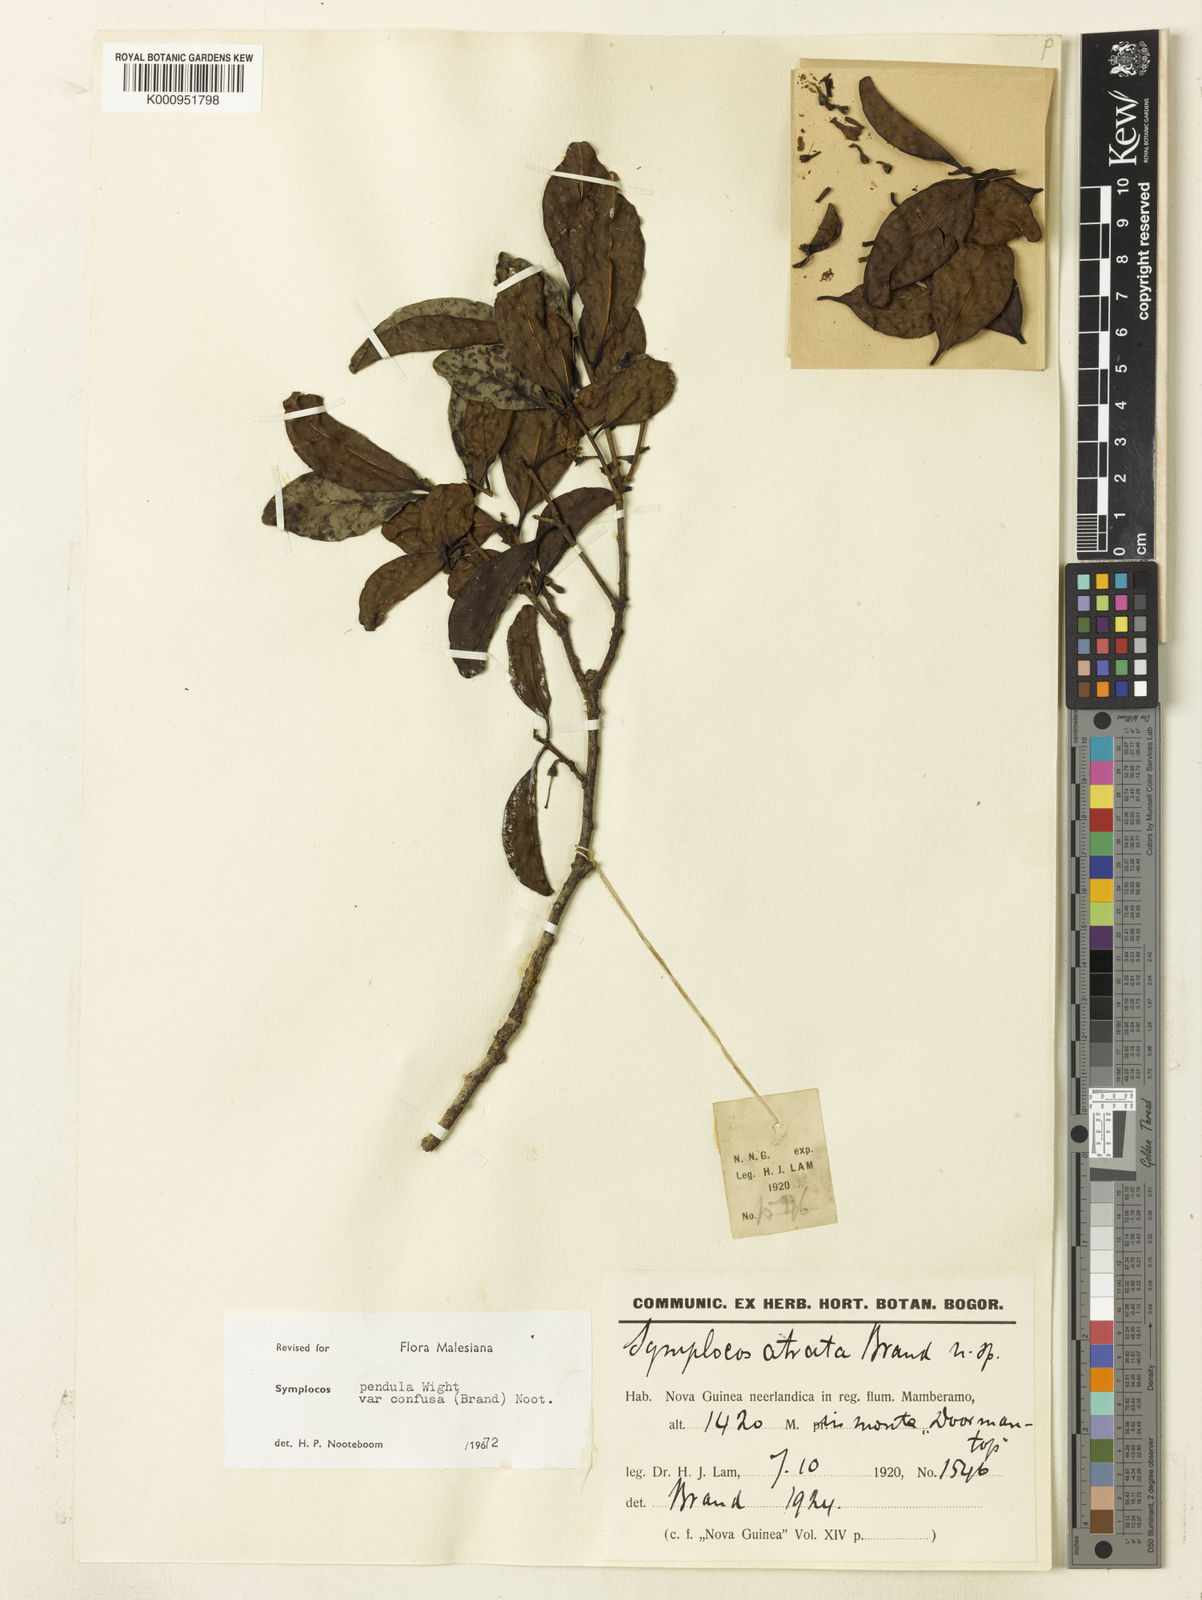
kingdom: Plantae
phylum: Tracheophyta
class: Magnoliopsida
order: Ericales
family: Symplocaceae
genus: Symplocos
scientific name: Symplocos pendula
